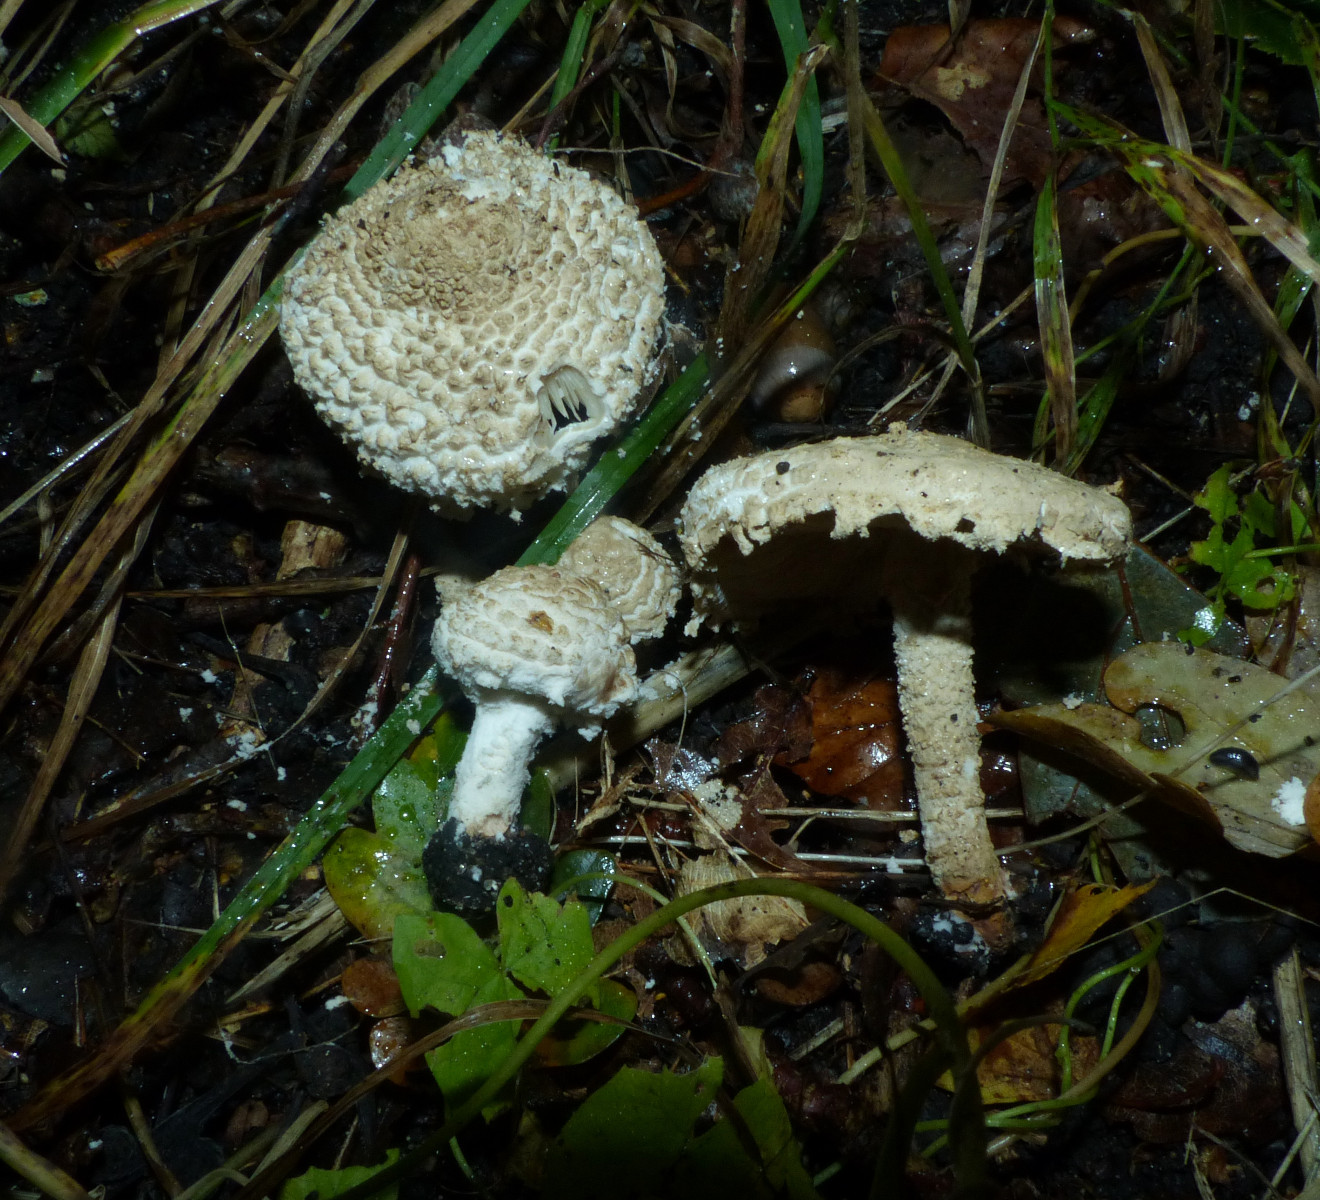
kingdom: Fungi
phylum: Basidiomycota
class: Agaricomycetes
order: Agaricales
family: Agaricaceae
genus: Cystolepiota
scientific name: Cystolepiota adulterina
